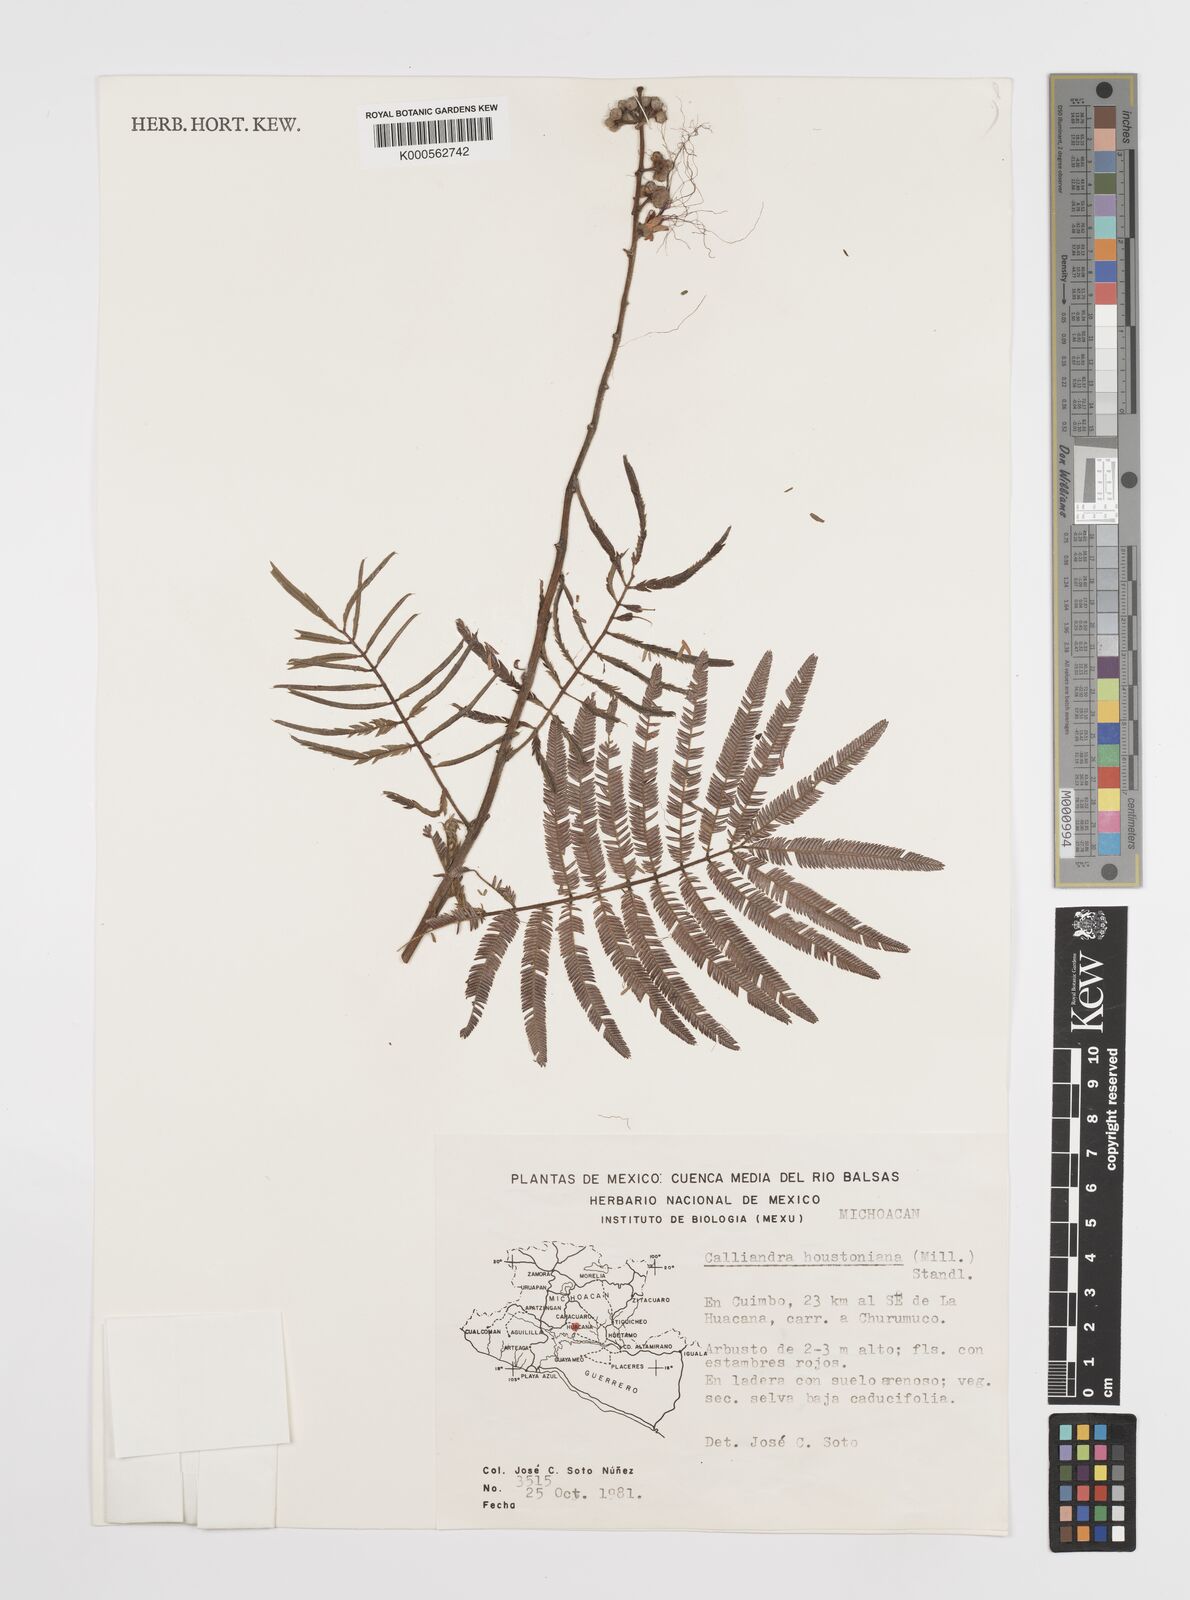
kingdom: Plantae
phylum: Tracheophyta
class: Magnoliopsida
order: Fabales
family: Fabaceae
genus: Calliandra
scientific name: Calliandra houstoniana
